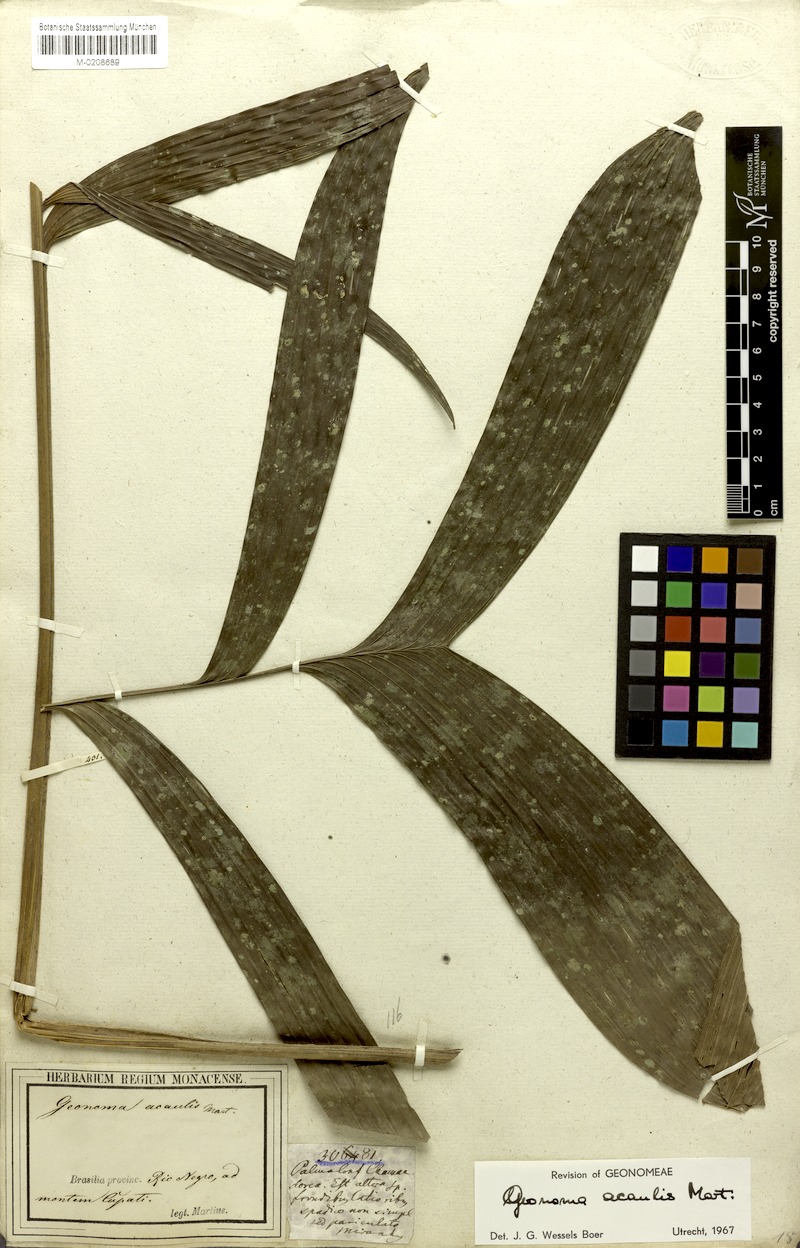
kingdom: Plantae
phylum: Tracheophyta
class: Liliopsida
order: Arecales
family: Arecaceae
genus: Geonoma
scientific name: Geonoma macrostachys
